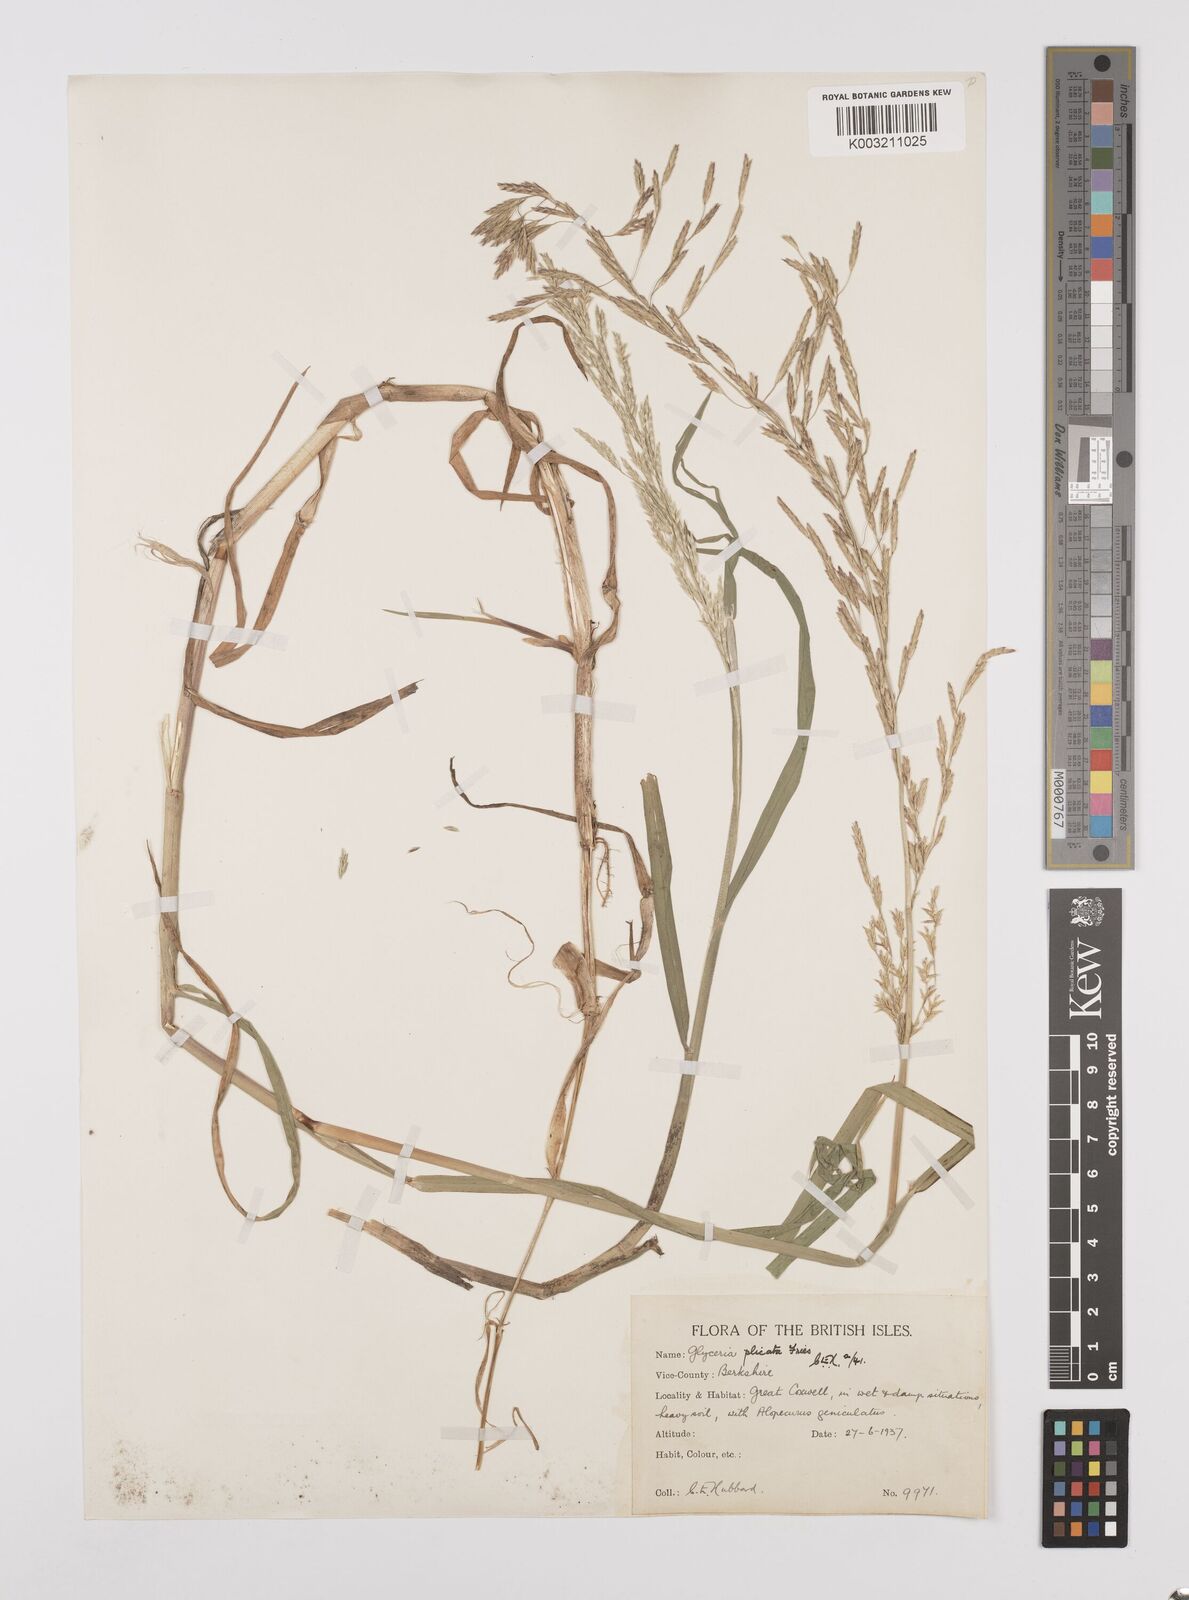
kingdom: Plantae
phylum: Tracheophyta
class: Liliopsida
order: Poales
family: Poaceae
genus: Glyceria
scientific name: Glyceria notata
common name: Plicate sweet-grass
